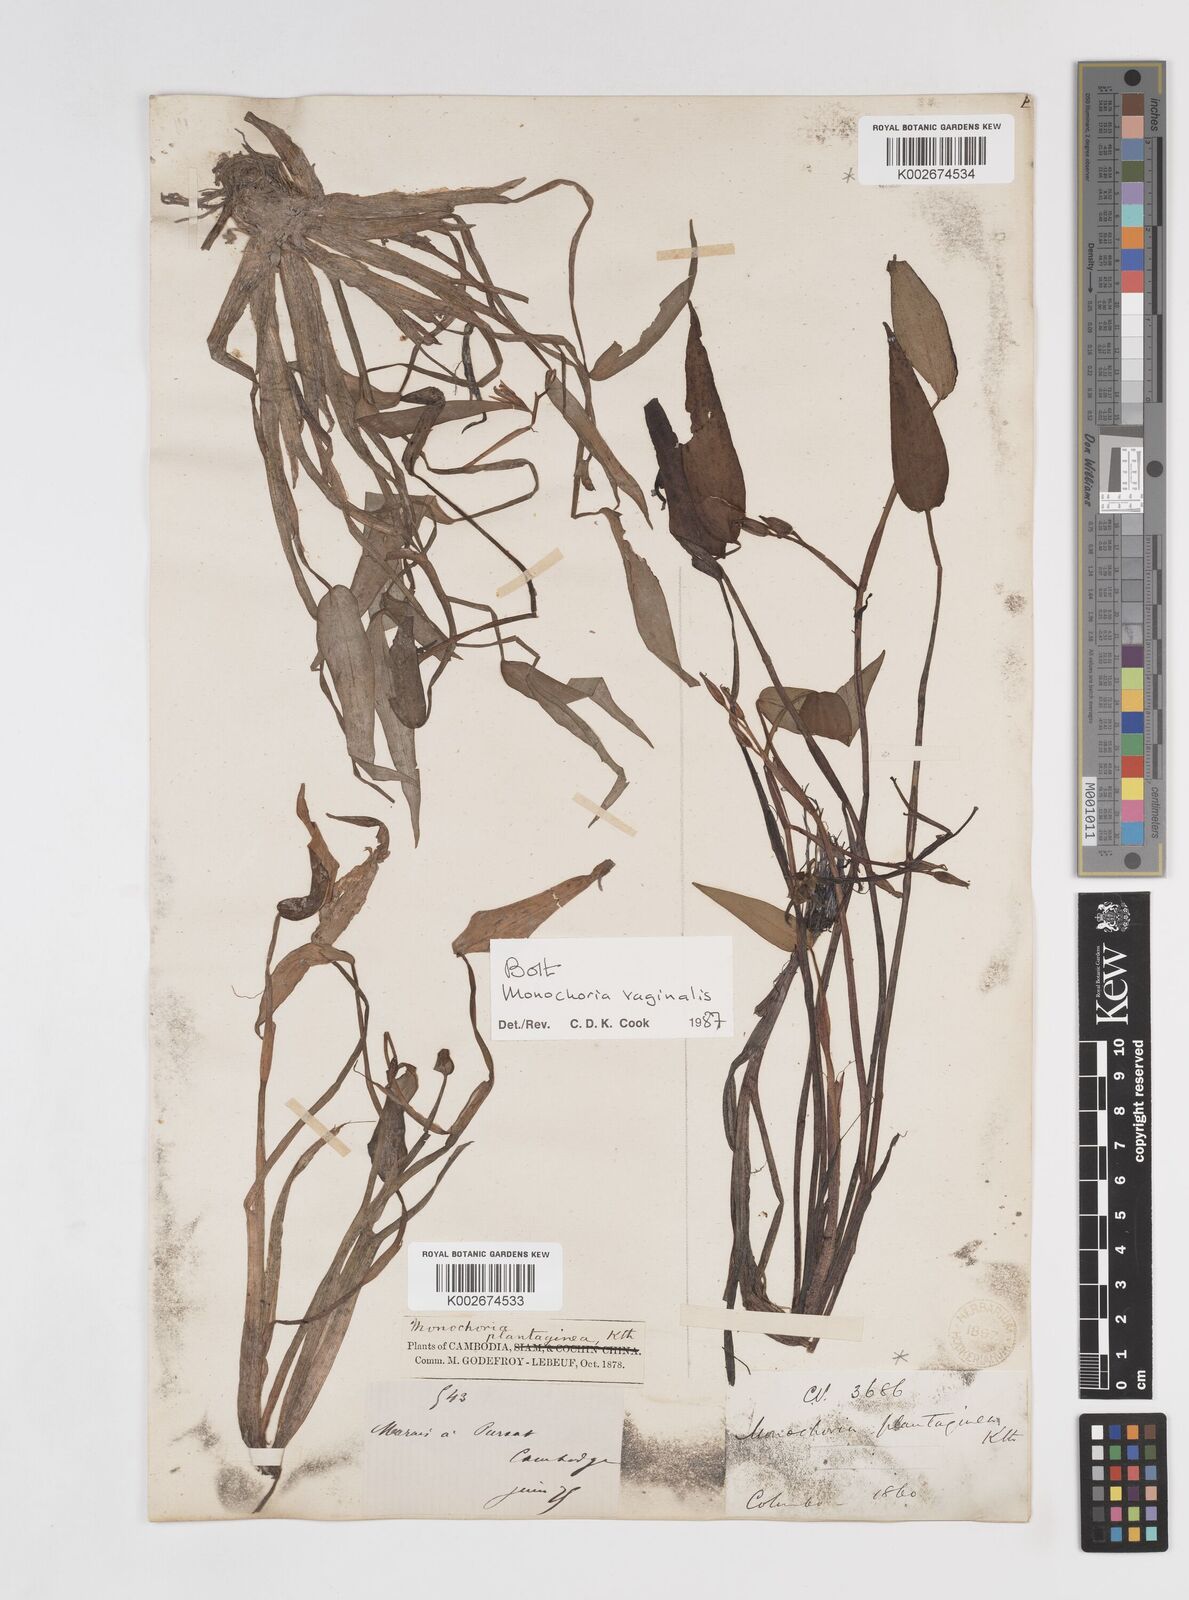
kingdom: Plantae
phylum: Tracheophyta
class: Liliopsida
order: Commelinales
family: Pontederiaceae
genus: Pontederia
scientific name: Pontederia vaginalis
